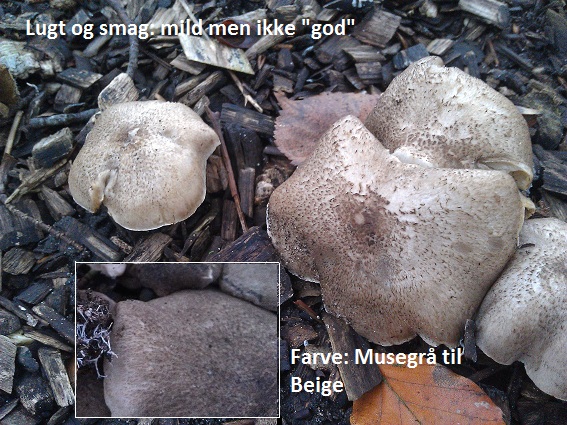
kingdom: Fungi
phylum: Basidiomycota
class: Agaricomycetes
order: Agaricales
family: Tricholomataceae
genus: Tricholoma
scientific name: Tricholoma scalpturatum
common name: gulplettet ridderhat
